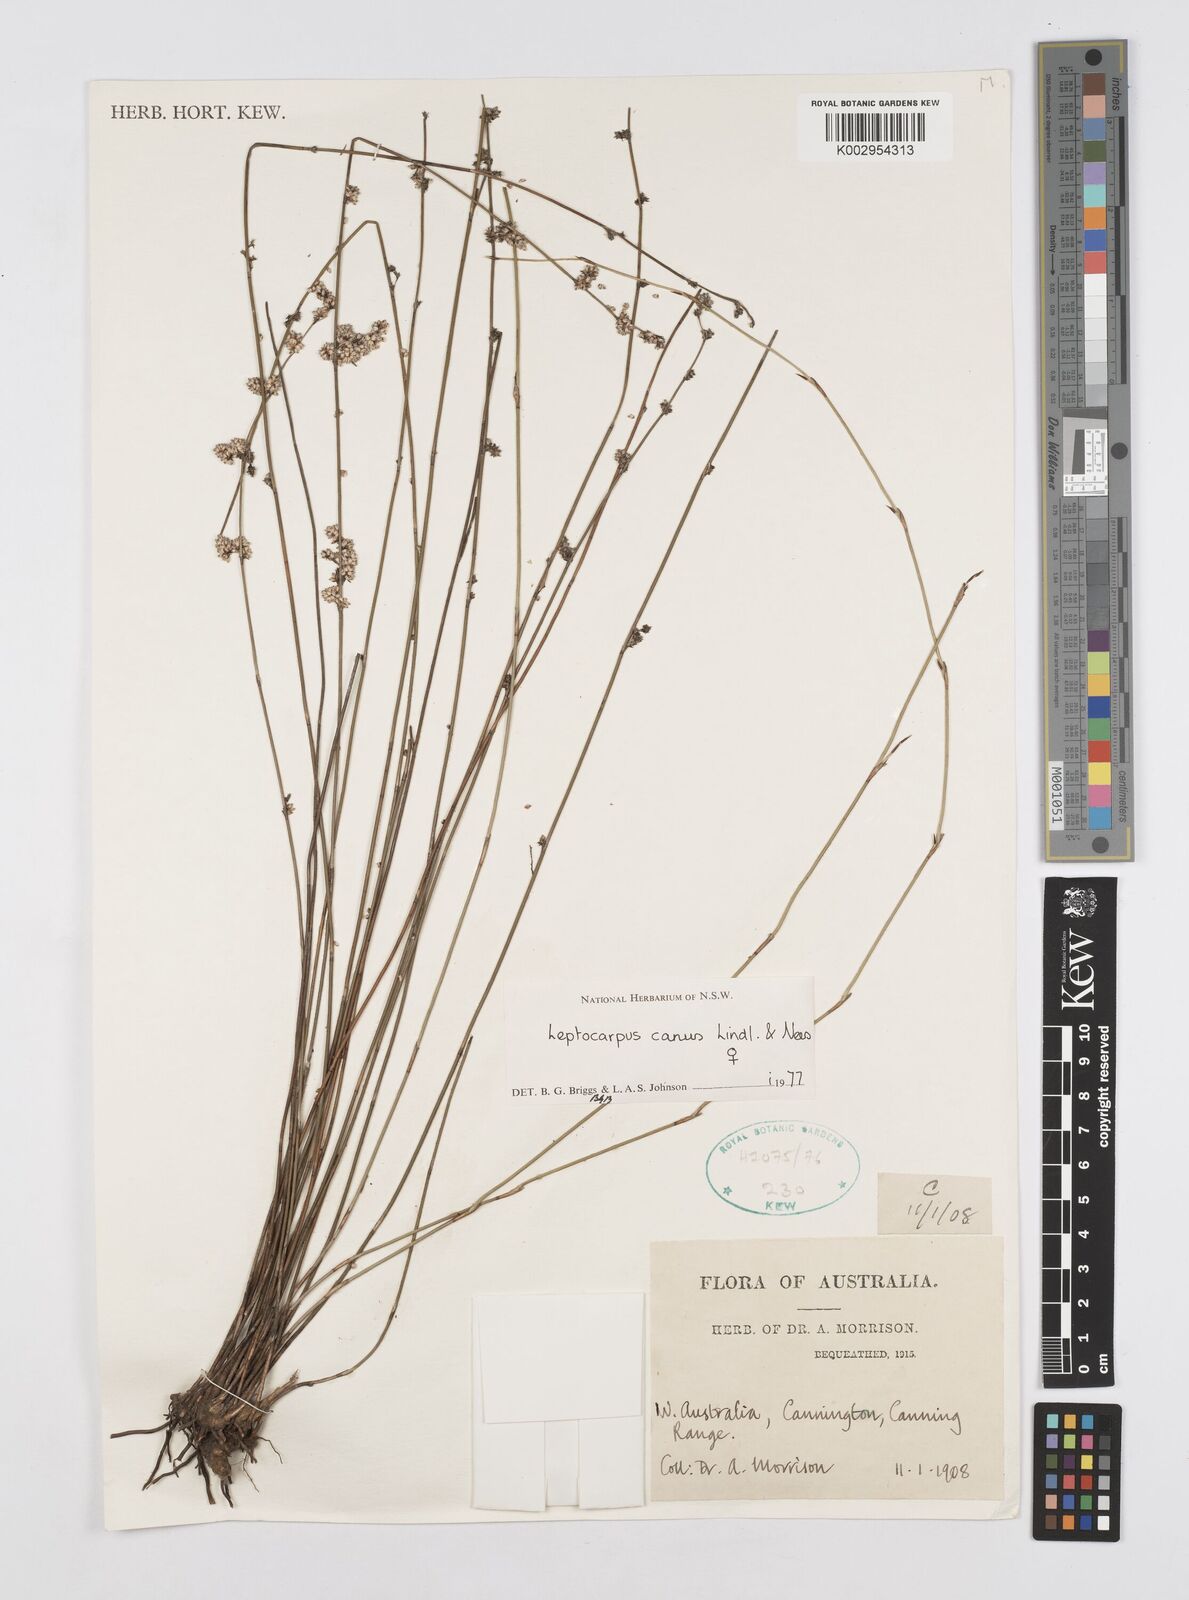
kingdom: Plantae
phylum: Tracheophyta
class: Liliopsida
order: Poales
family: Restionaceae
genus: Leptocarpus
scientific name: Leptocarpus canus
